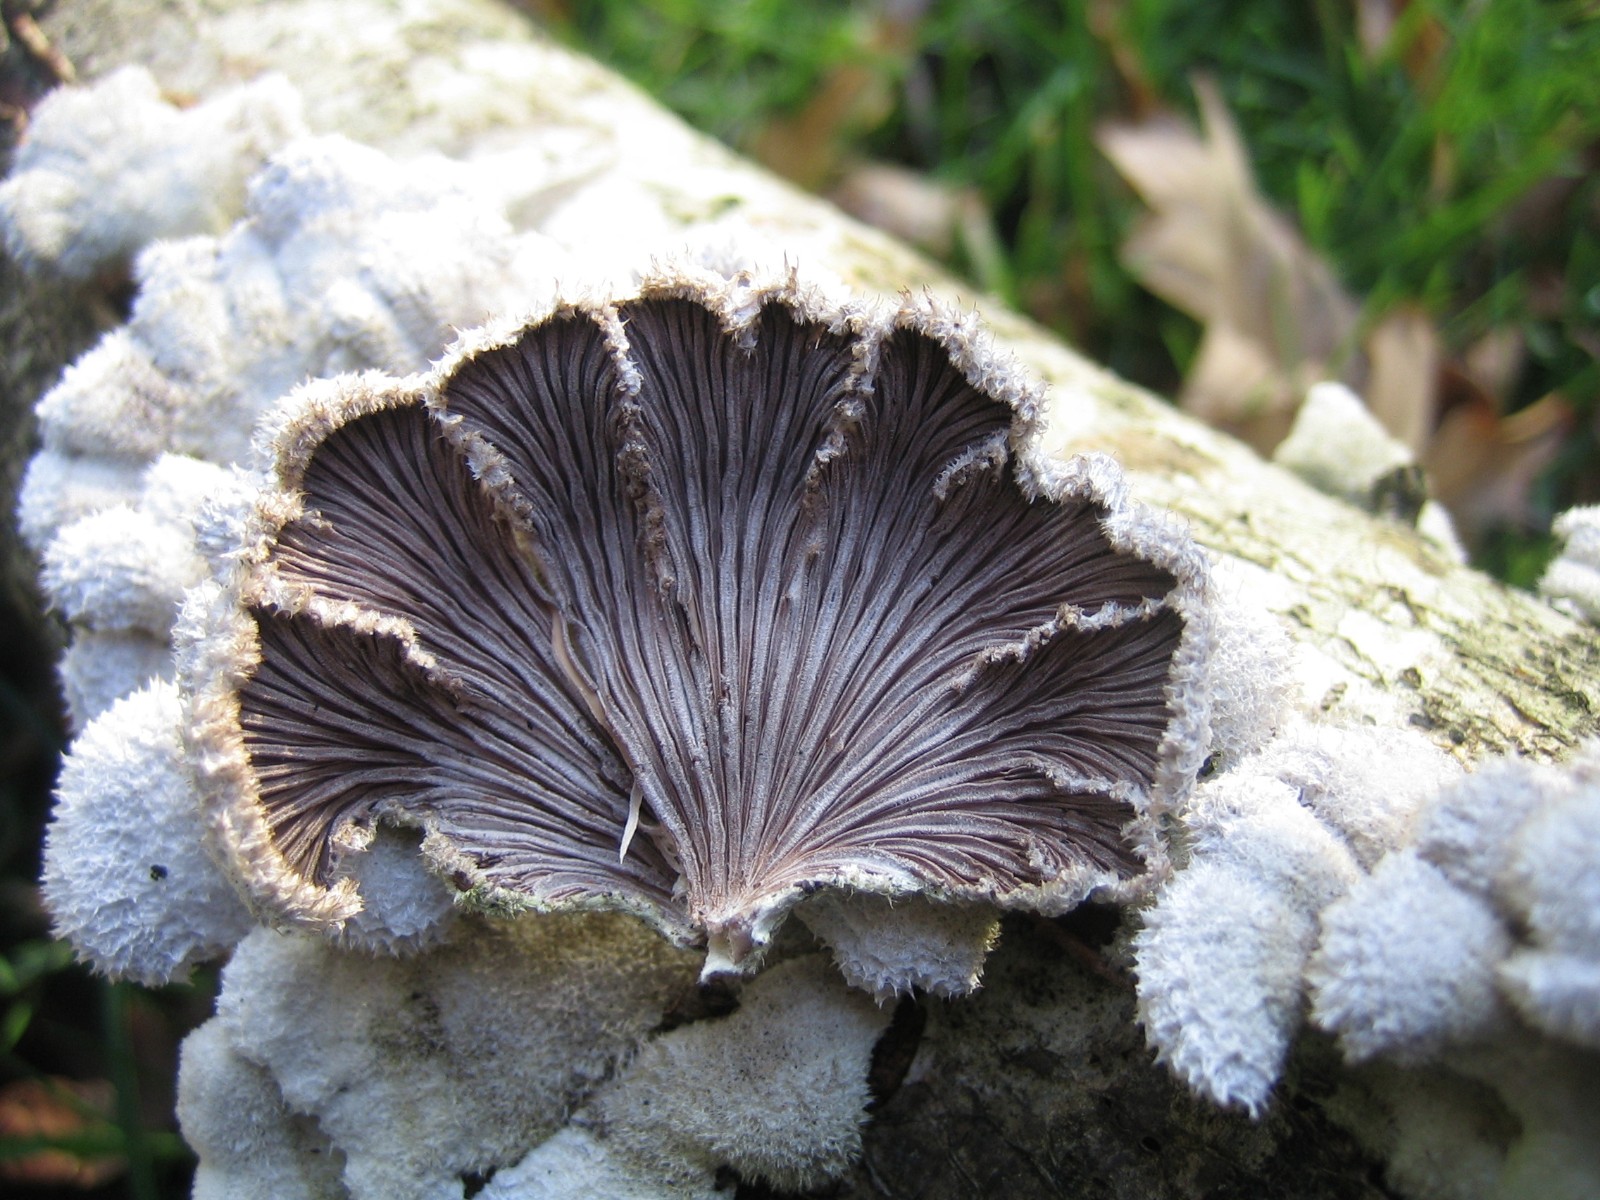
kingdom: Fungi
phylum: Basidiomycota
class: Agaricomycetes
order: Agaricales
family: Schizophyllaceae
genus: Schizophyllum
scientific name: Schizophyllum commune
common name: kløvblad
